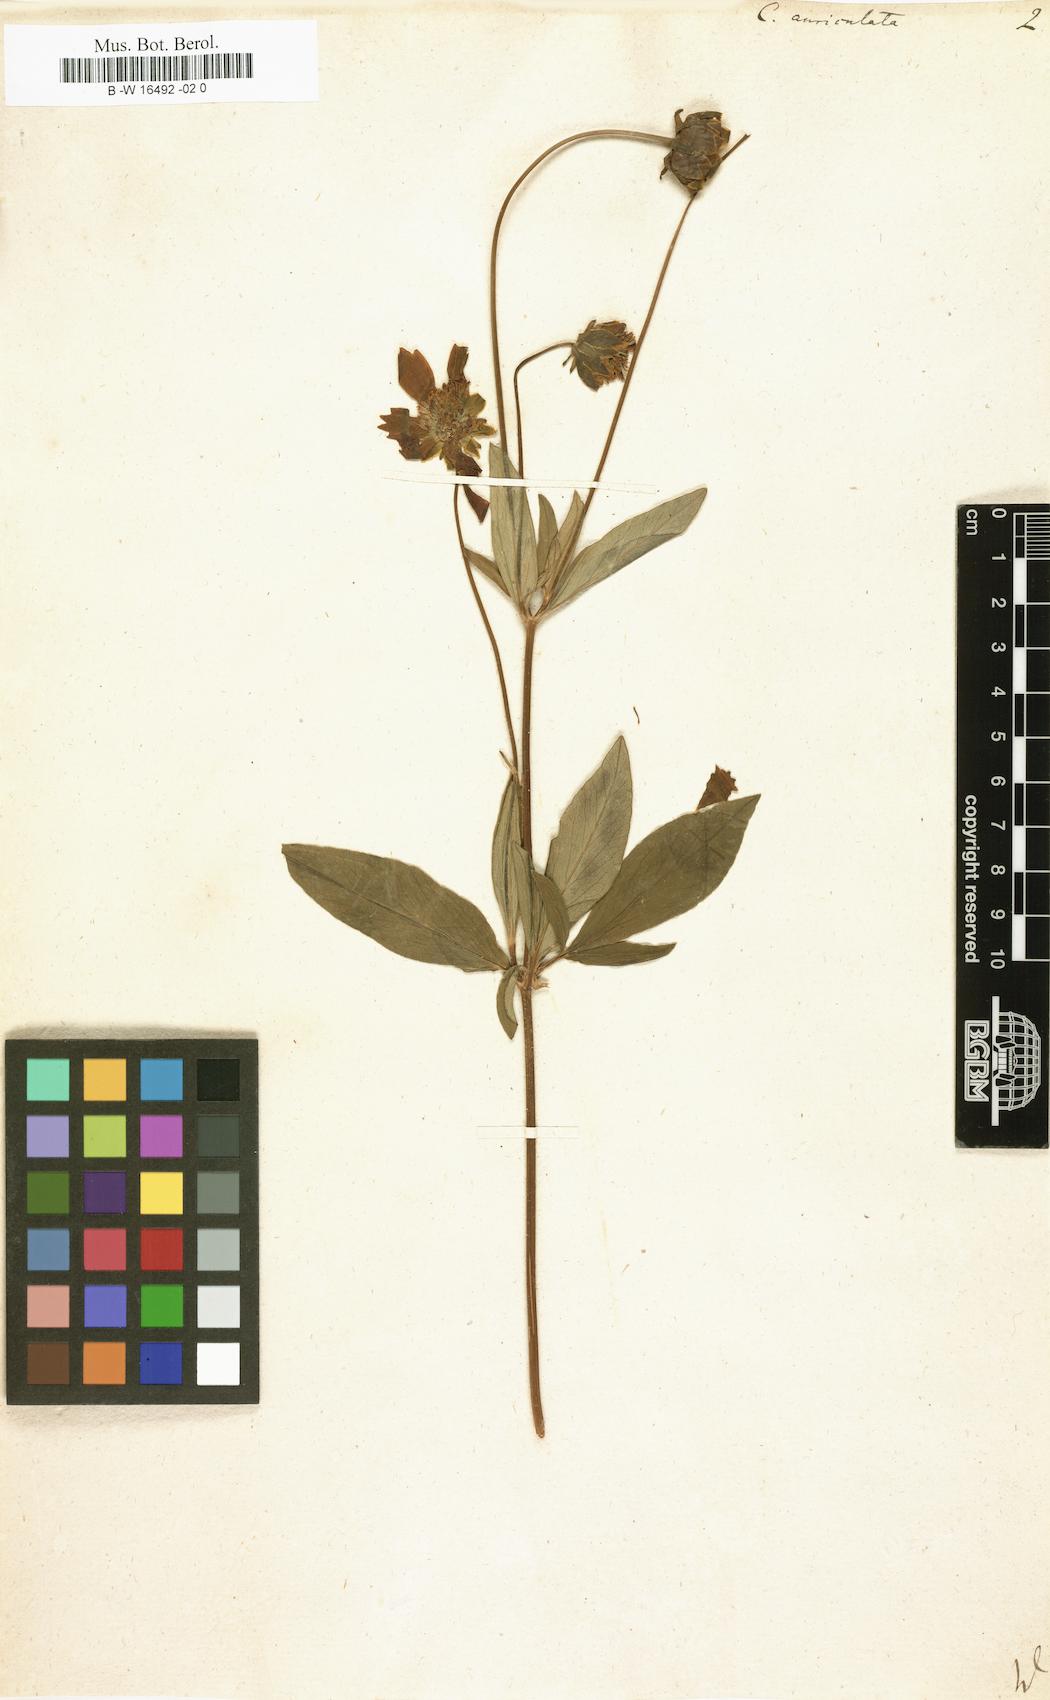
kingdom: Plantae
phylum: Tracheophyta
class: Magnoliopsida
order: Asterales
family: Asteraceae
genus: Coreopsis
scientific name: Coreopsis auriculata
